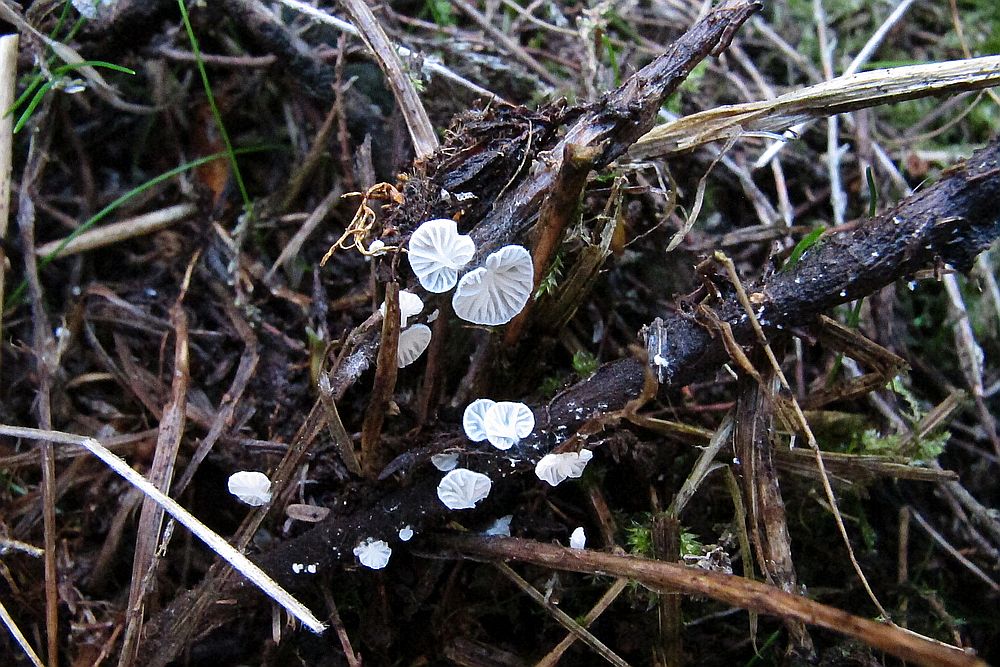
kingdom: Fungi
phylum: Basidiomycota
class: Agaricomycetes
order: Agaricales
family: Entolomataceae
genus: Clitopilus
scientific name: Clitopilus hobsonii
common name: Miller's oysterling
